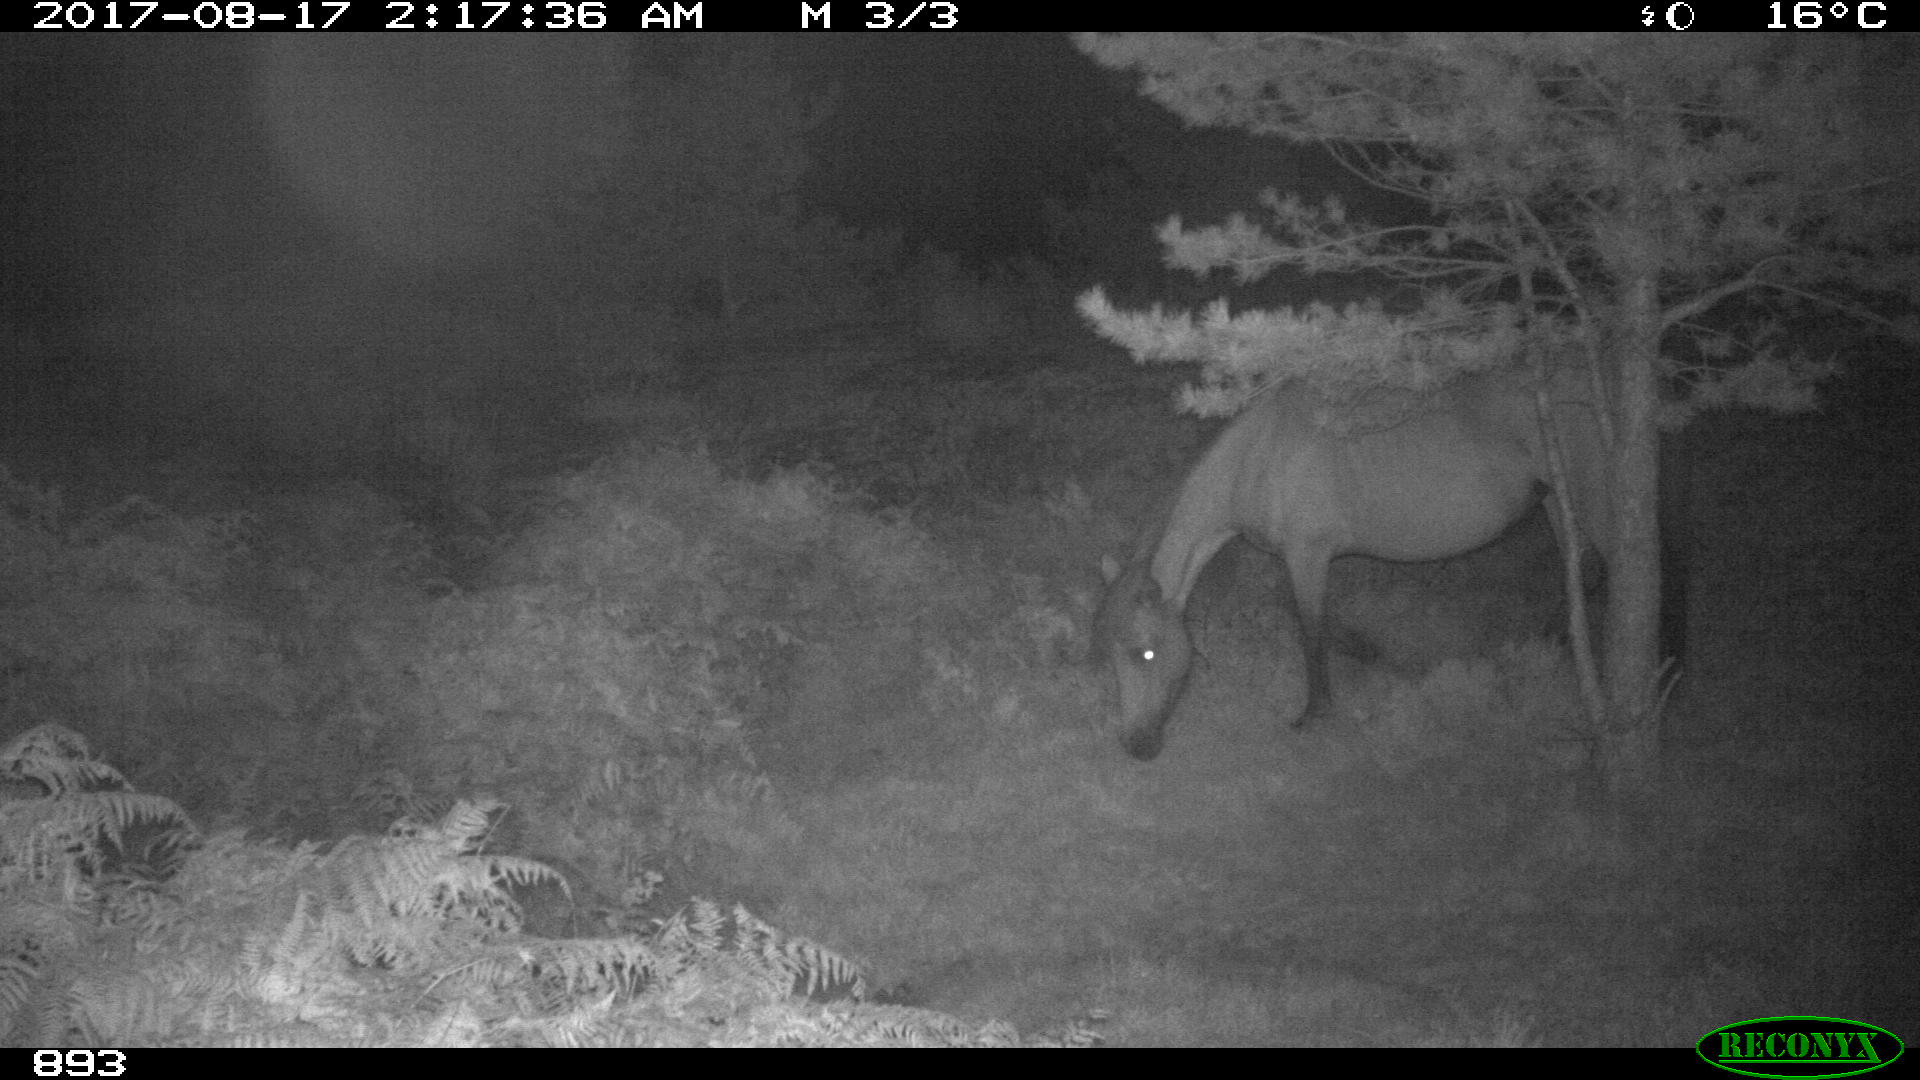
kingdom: Animalia
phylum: Chordata
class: Mammalia
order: Perissodactyla
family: Equidae
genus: Equus
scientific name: Equus caballus
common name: Horse
